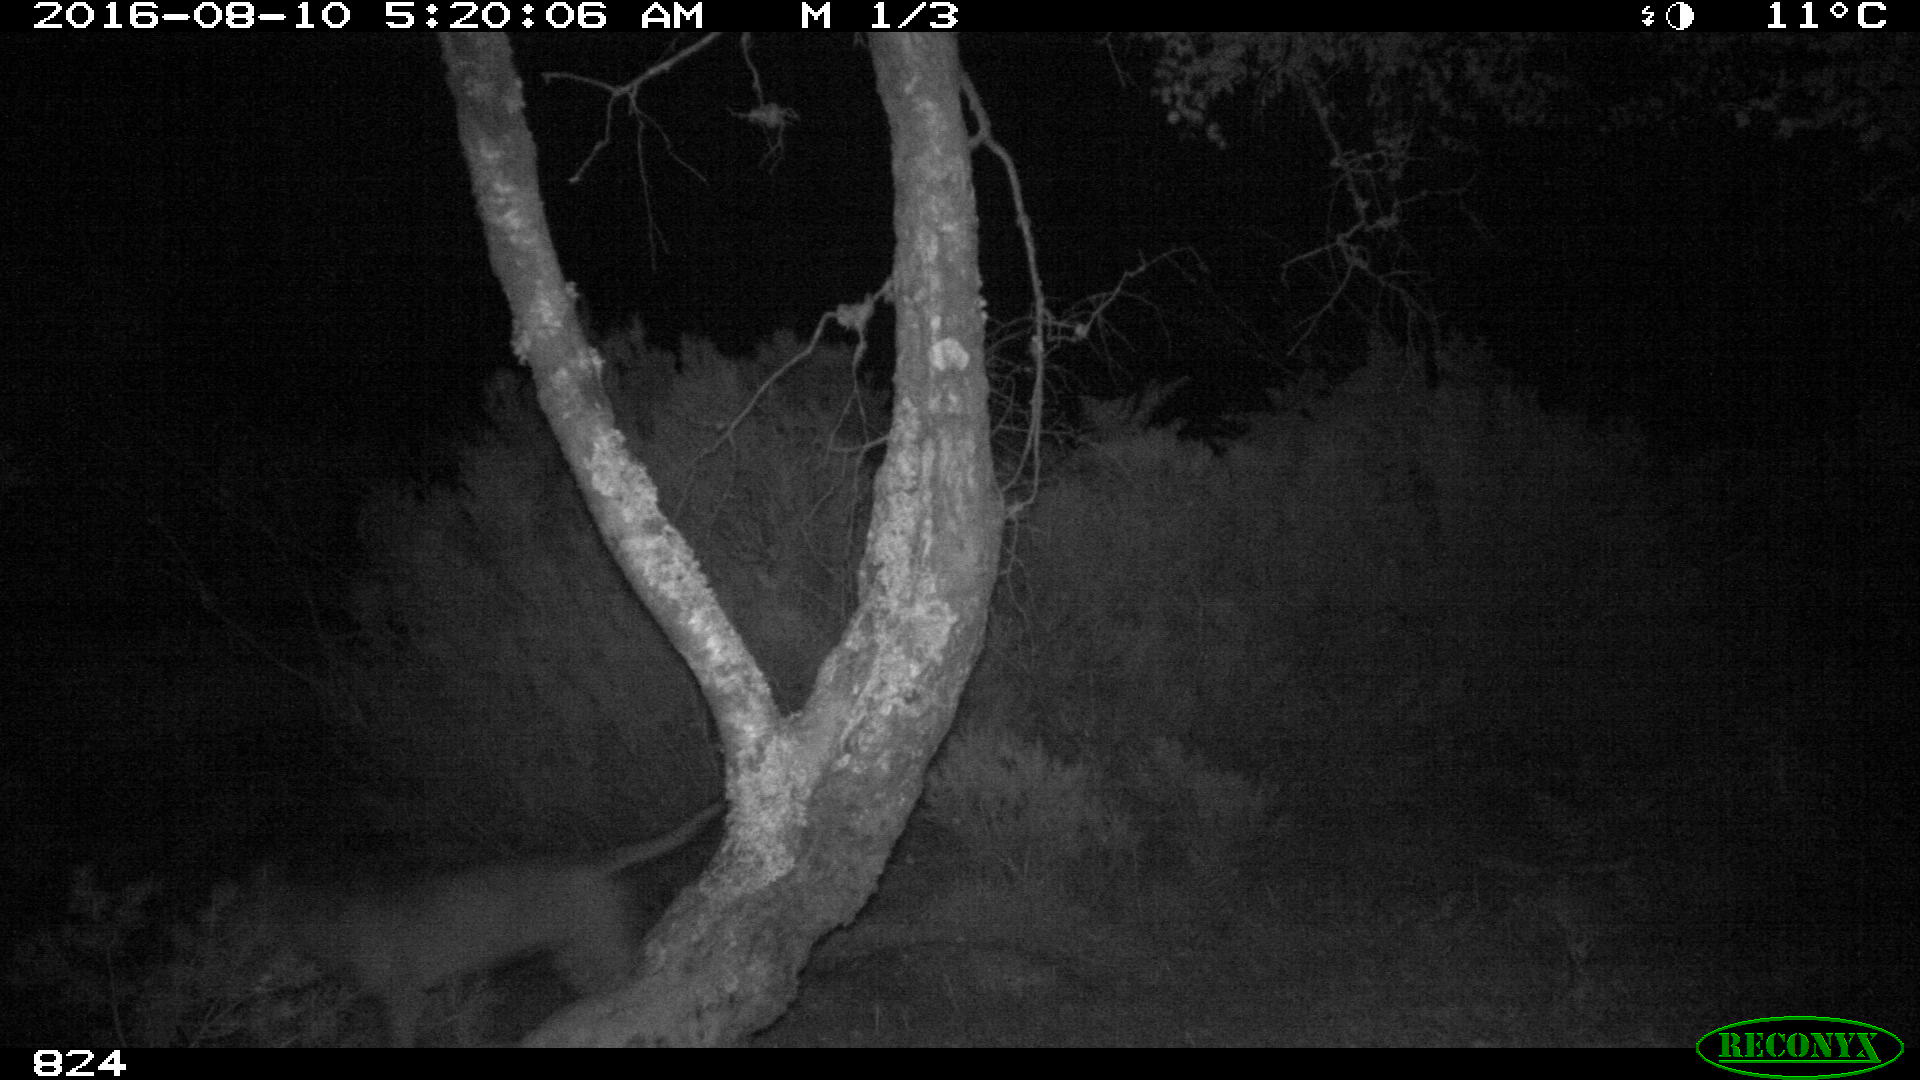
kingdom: Animalia
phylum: Chordata
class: Mammalia
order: Carnivora
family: Canidae
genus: Canis
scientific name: Canis lupus
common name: Gray wolf
